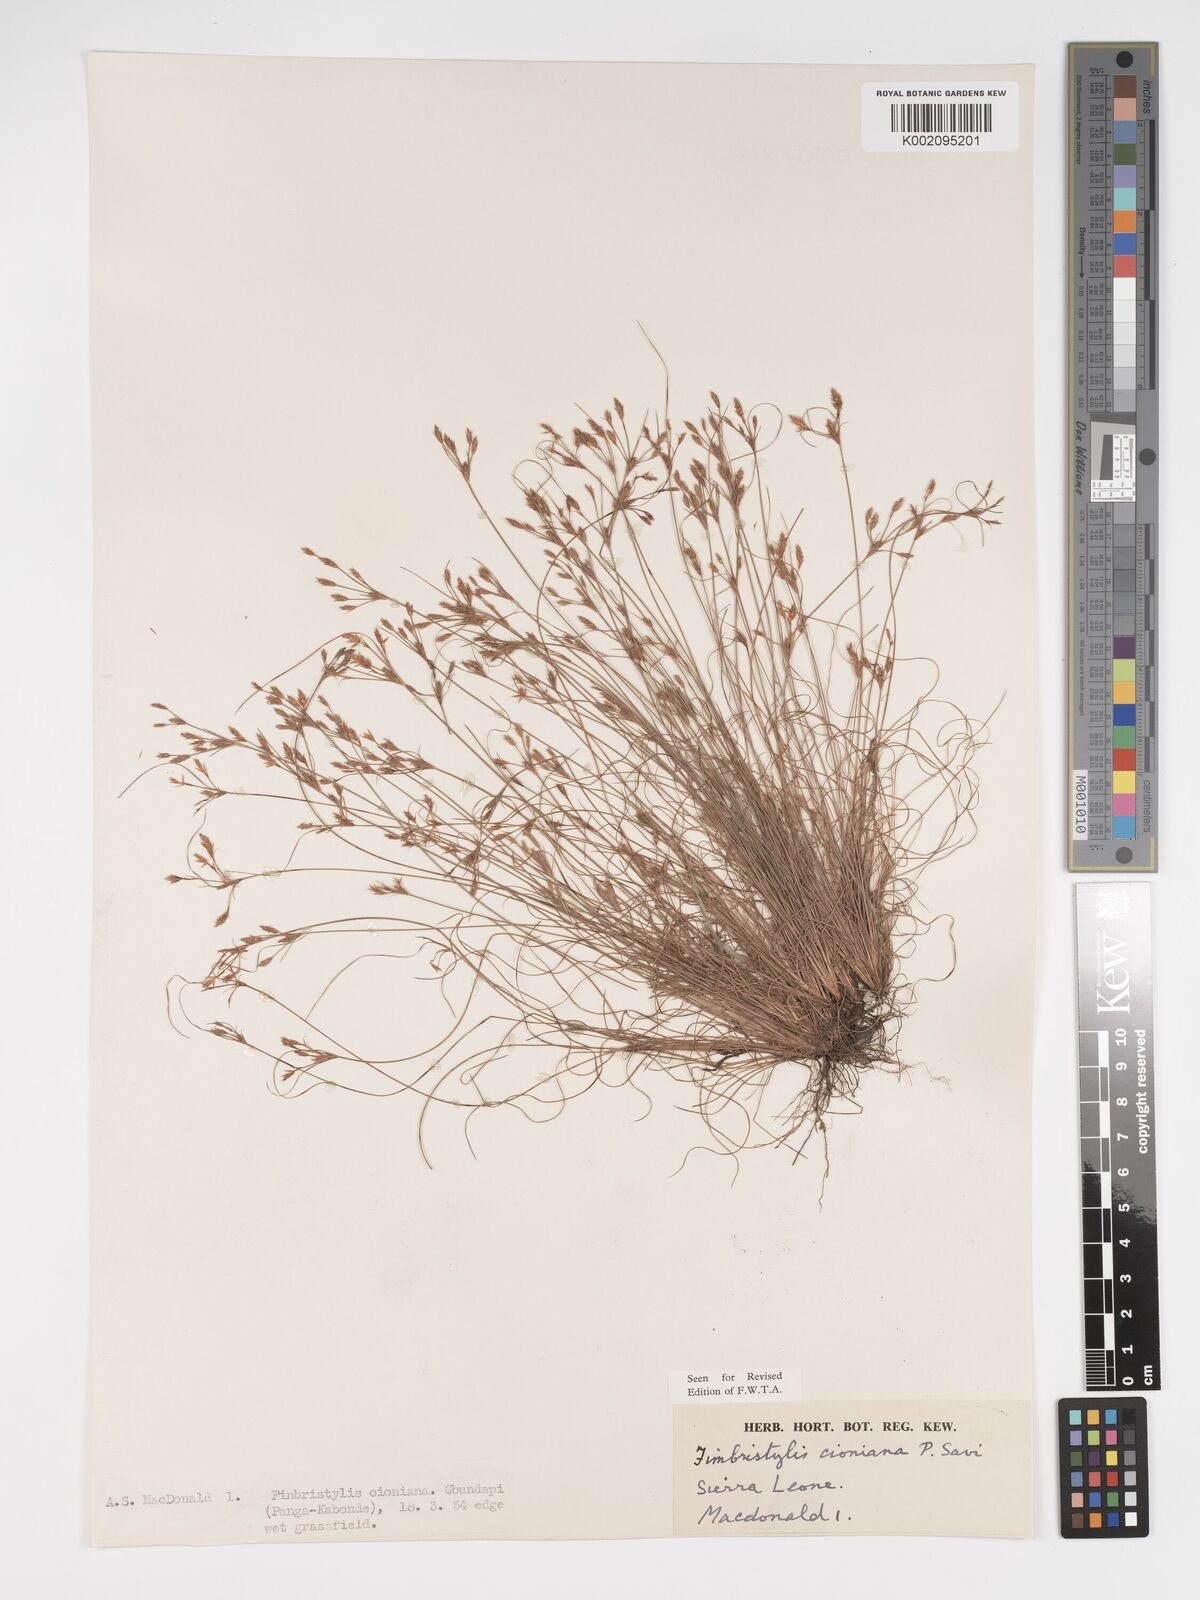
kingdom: Plantae
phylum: Tracheophyta
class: Liliopsida
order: Poales
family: Cyperaceae
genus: Bulbostylis
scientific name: Bulbostylis cioniana
